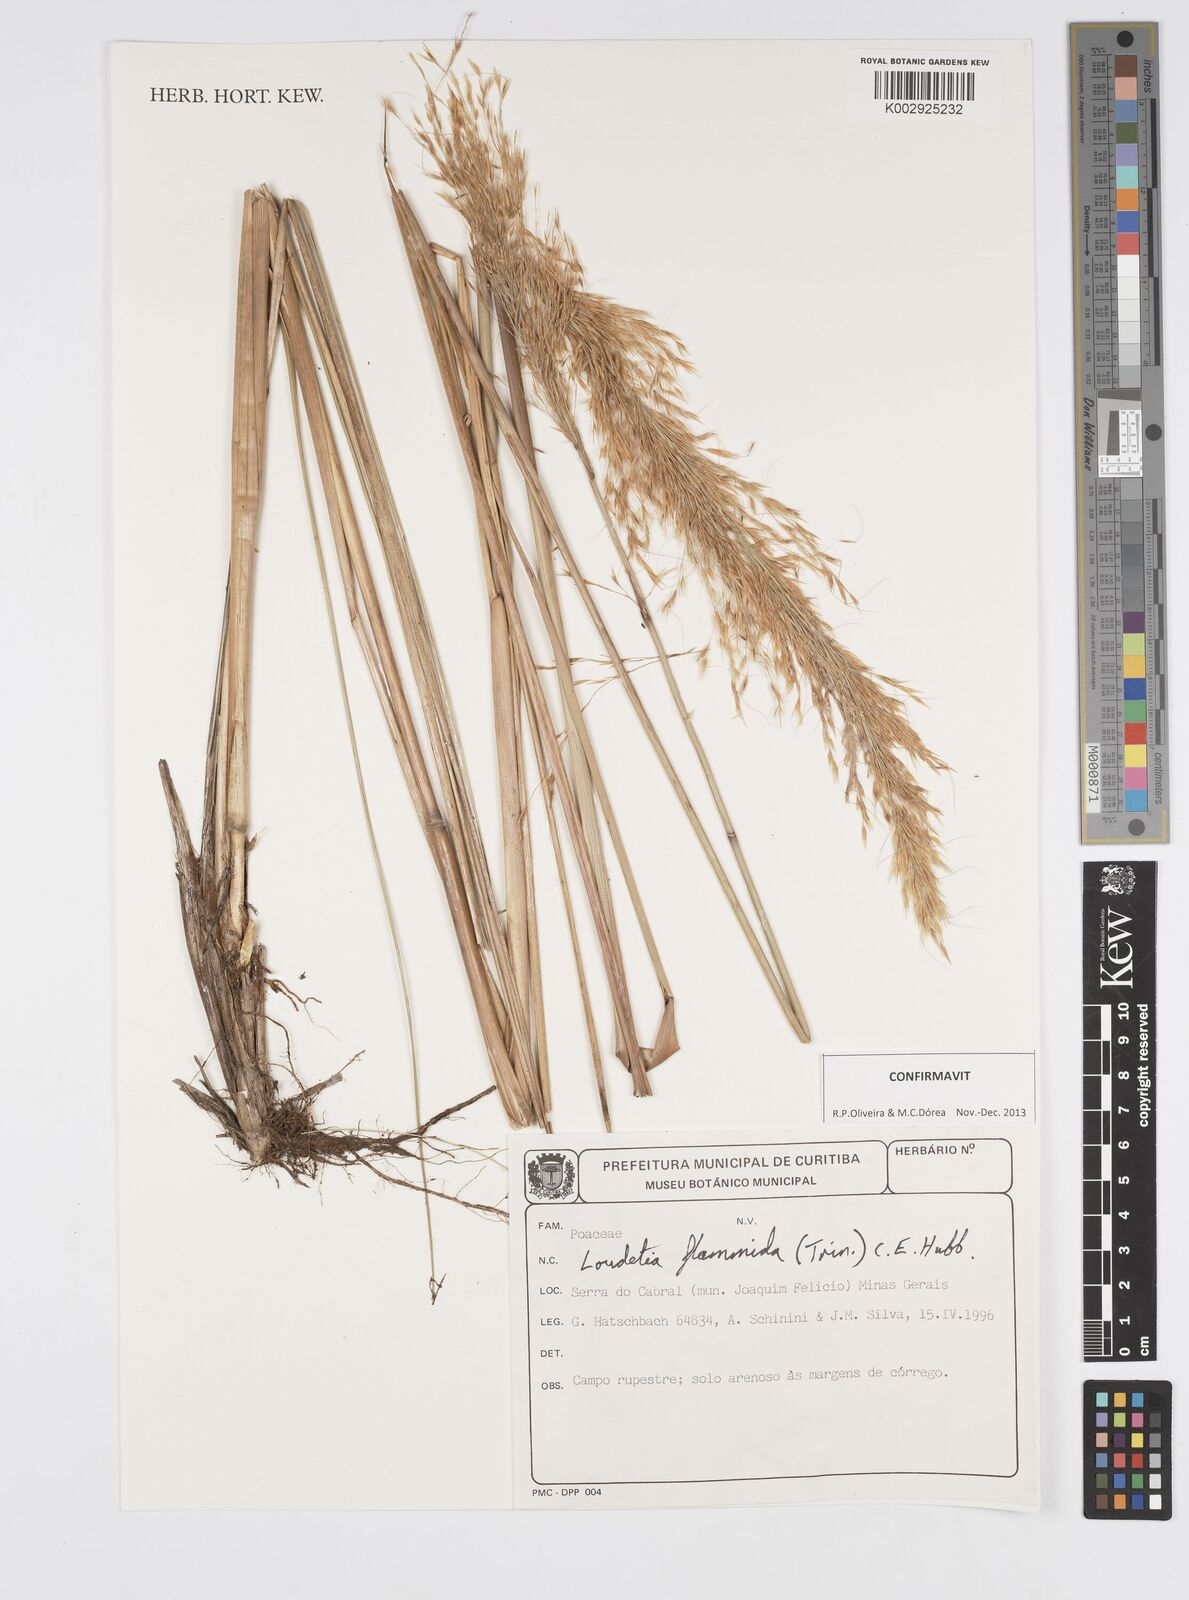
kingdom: Plantae
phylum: Tracheophyta
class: Liliopsida
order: Poales
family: Poaceae
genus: Loudetia
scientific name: Loudetia flammida
